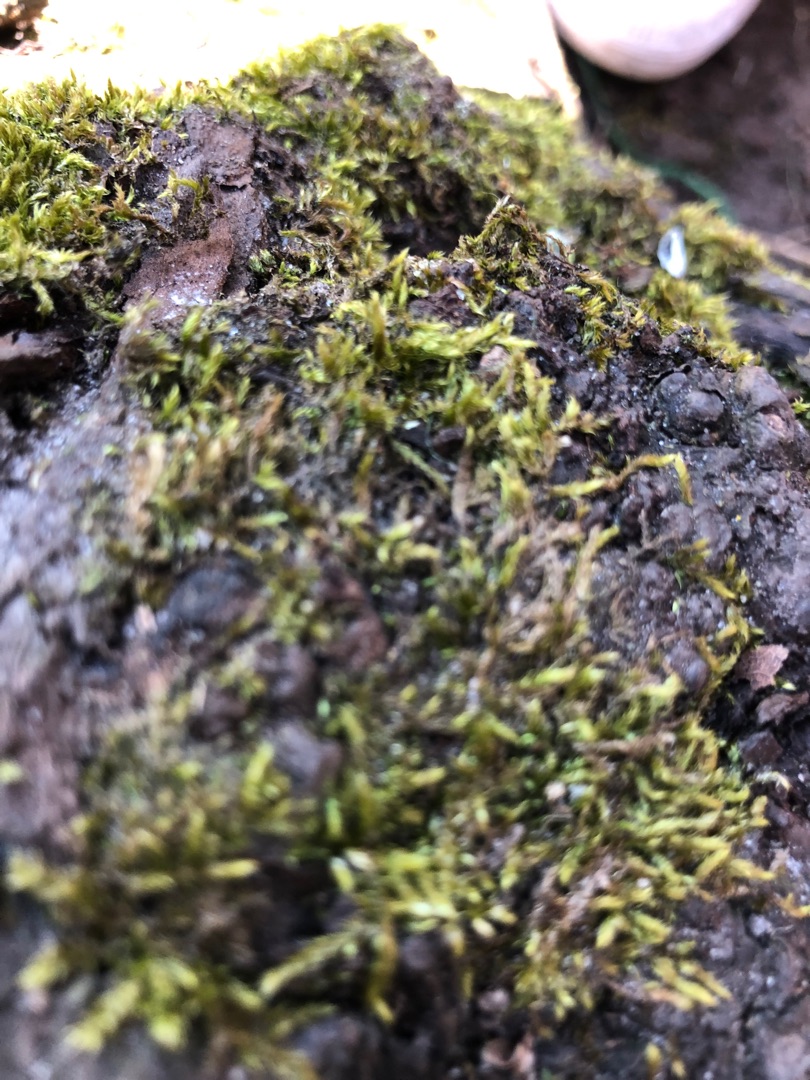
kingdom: Plantae
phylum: Bryophyta
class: Bryopsida
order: Hypnales
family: Hypnaceae
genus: Hypnum
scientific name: Hypnum
